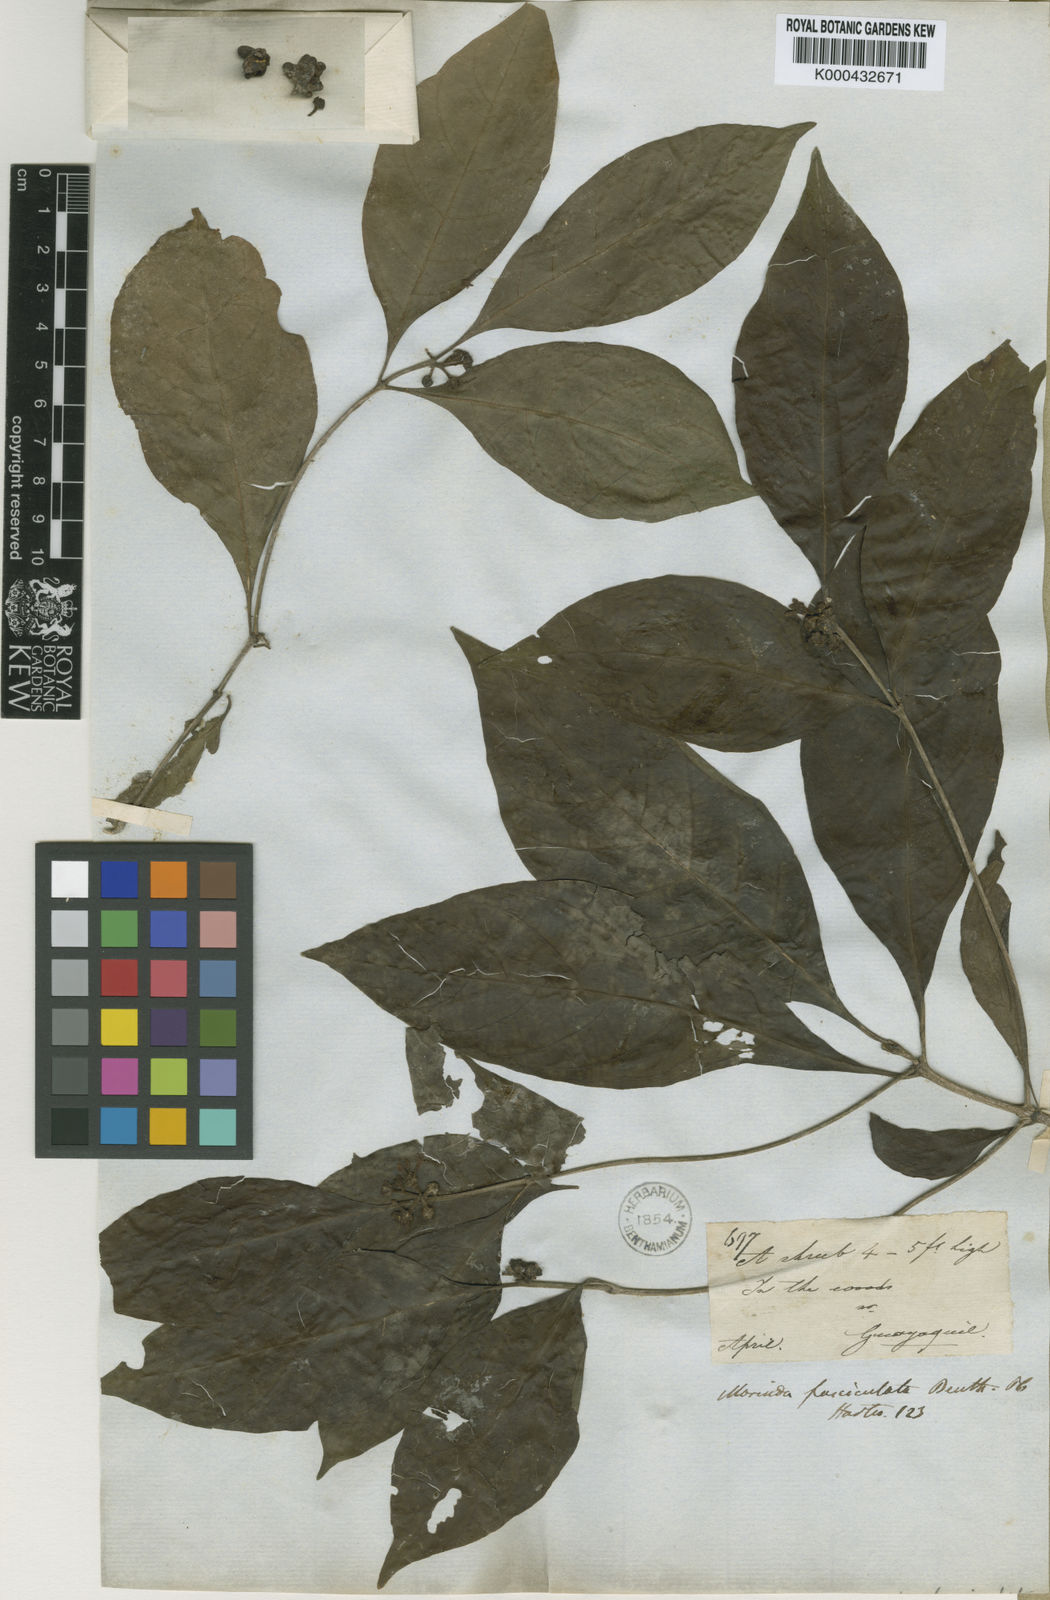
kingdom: Plantae
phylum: Tracheophyta
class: Magnoliopsida
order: Gentianales
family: Rubiaceae
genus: Morinda
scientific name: Morinda fasciculata
